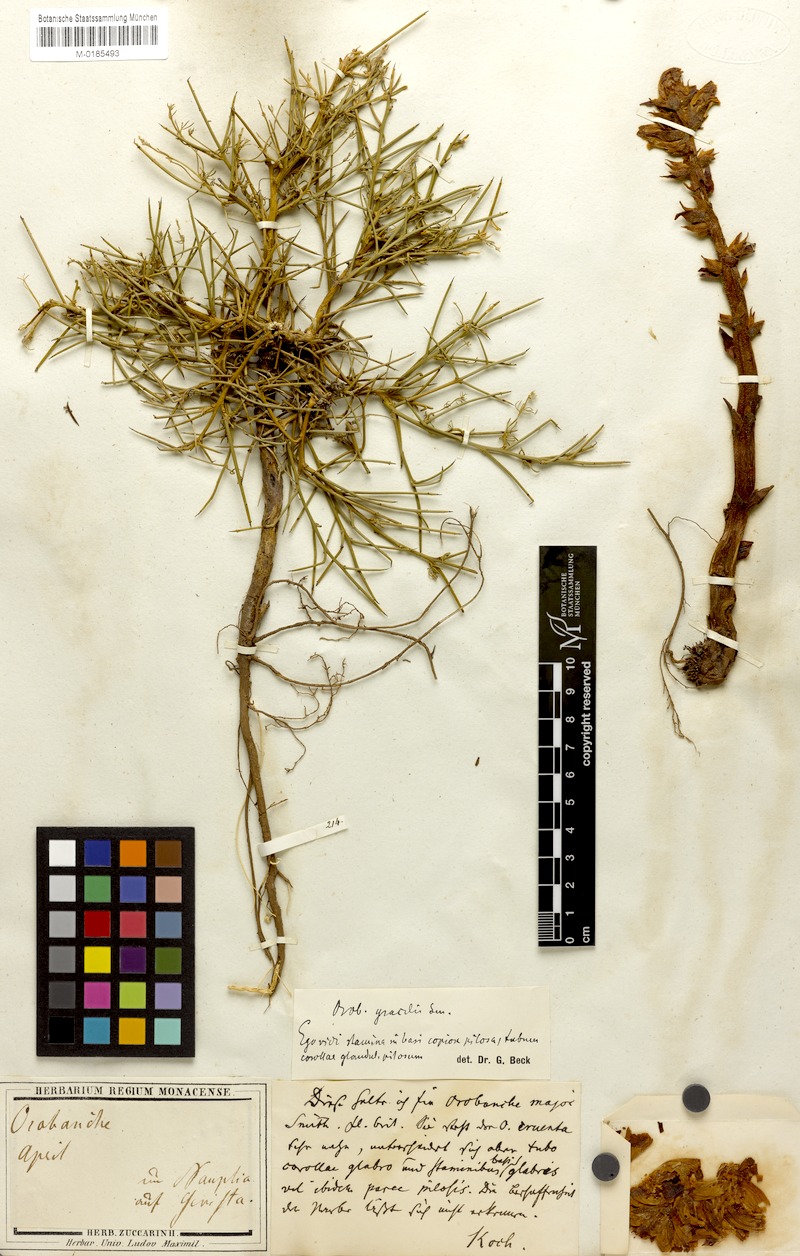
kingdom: Plantae
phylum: Tracheophyta
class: Magnoliopsida
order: Lamiales
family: Orobanchaceae
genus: Orobanche
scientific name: Orobanche gracilis
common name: Slender broomrape
